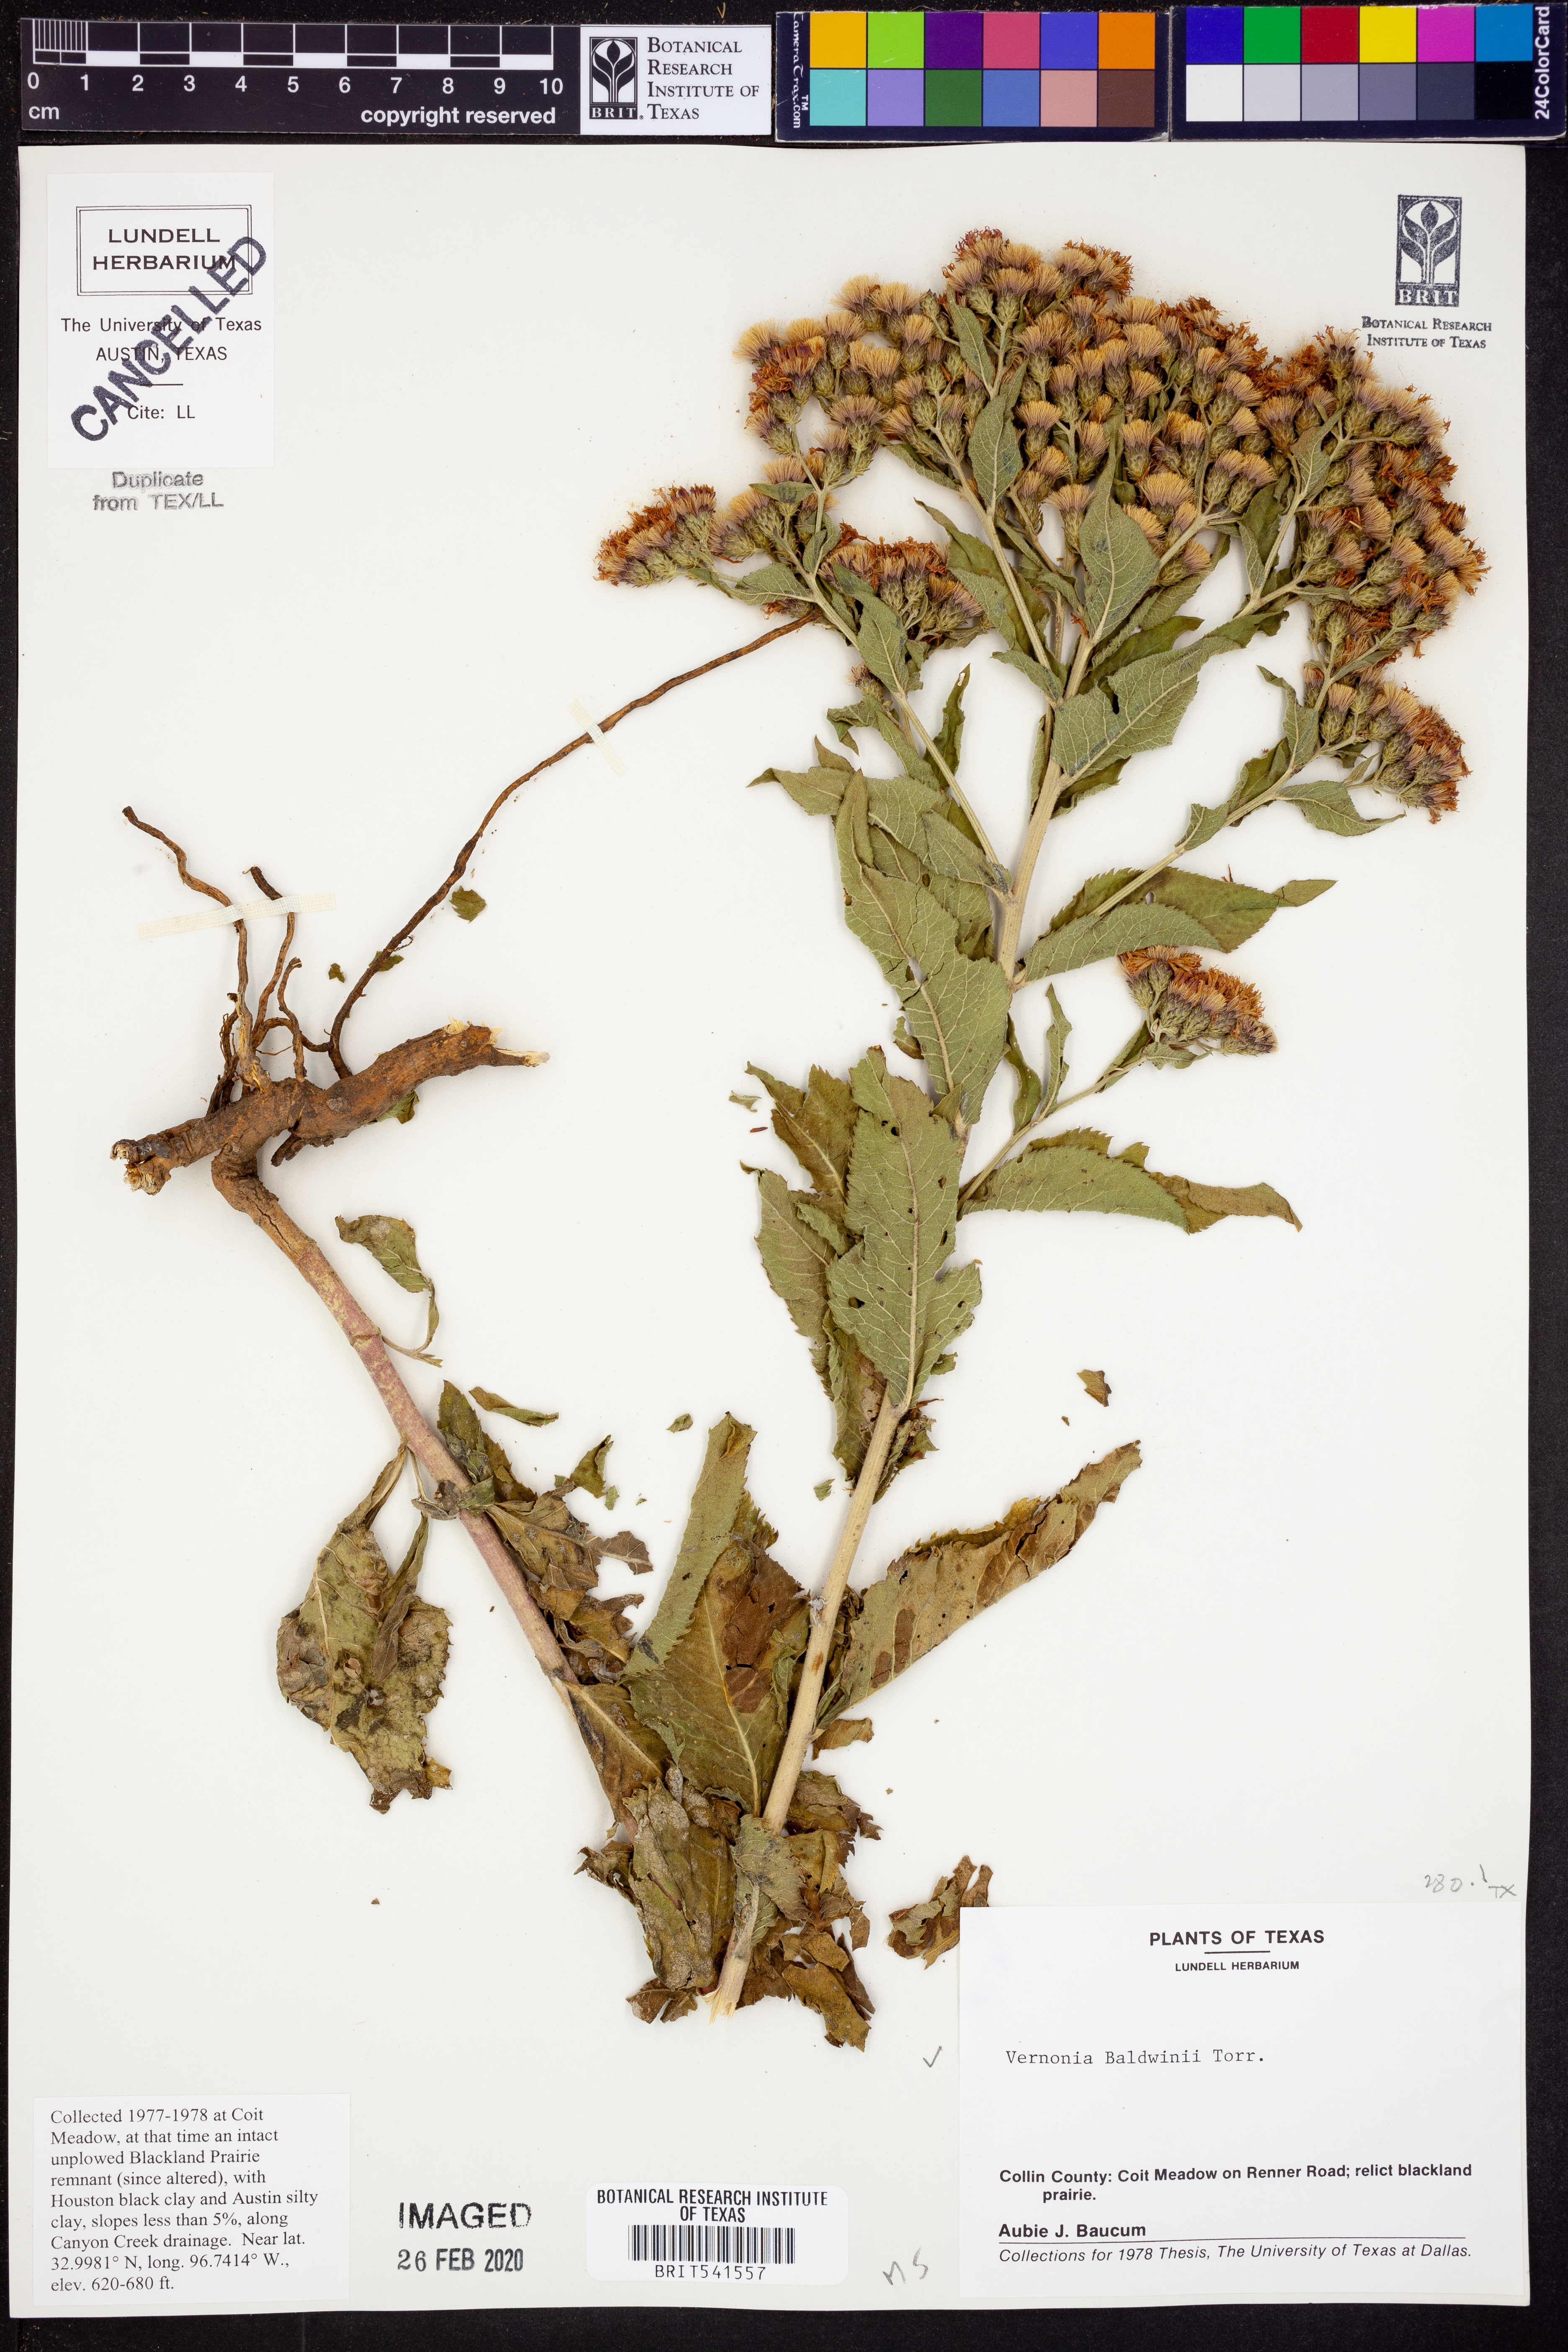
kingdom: Plantae
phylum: Tracheophyta
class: Magnoliopsida
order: Asterales
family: Asteraceae
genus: Vernonia
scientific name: Vernonia baldwinii
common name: Western ironweed
